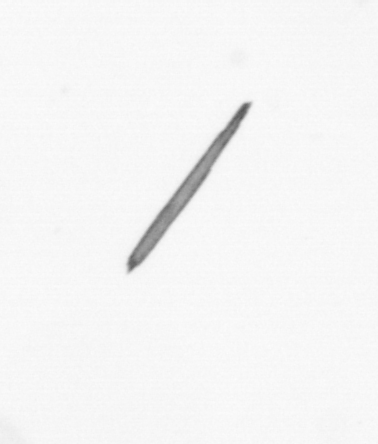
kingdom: Bacteria
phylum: Cyanobacteria
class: Cyanobacteriia
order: Cyanobacteriales
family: Microcoleaceae
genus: Trichodesmium
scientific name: Trichodesmium
